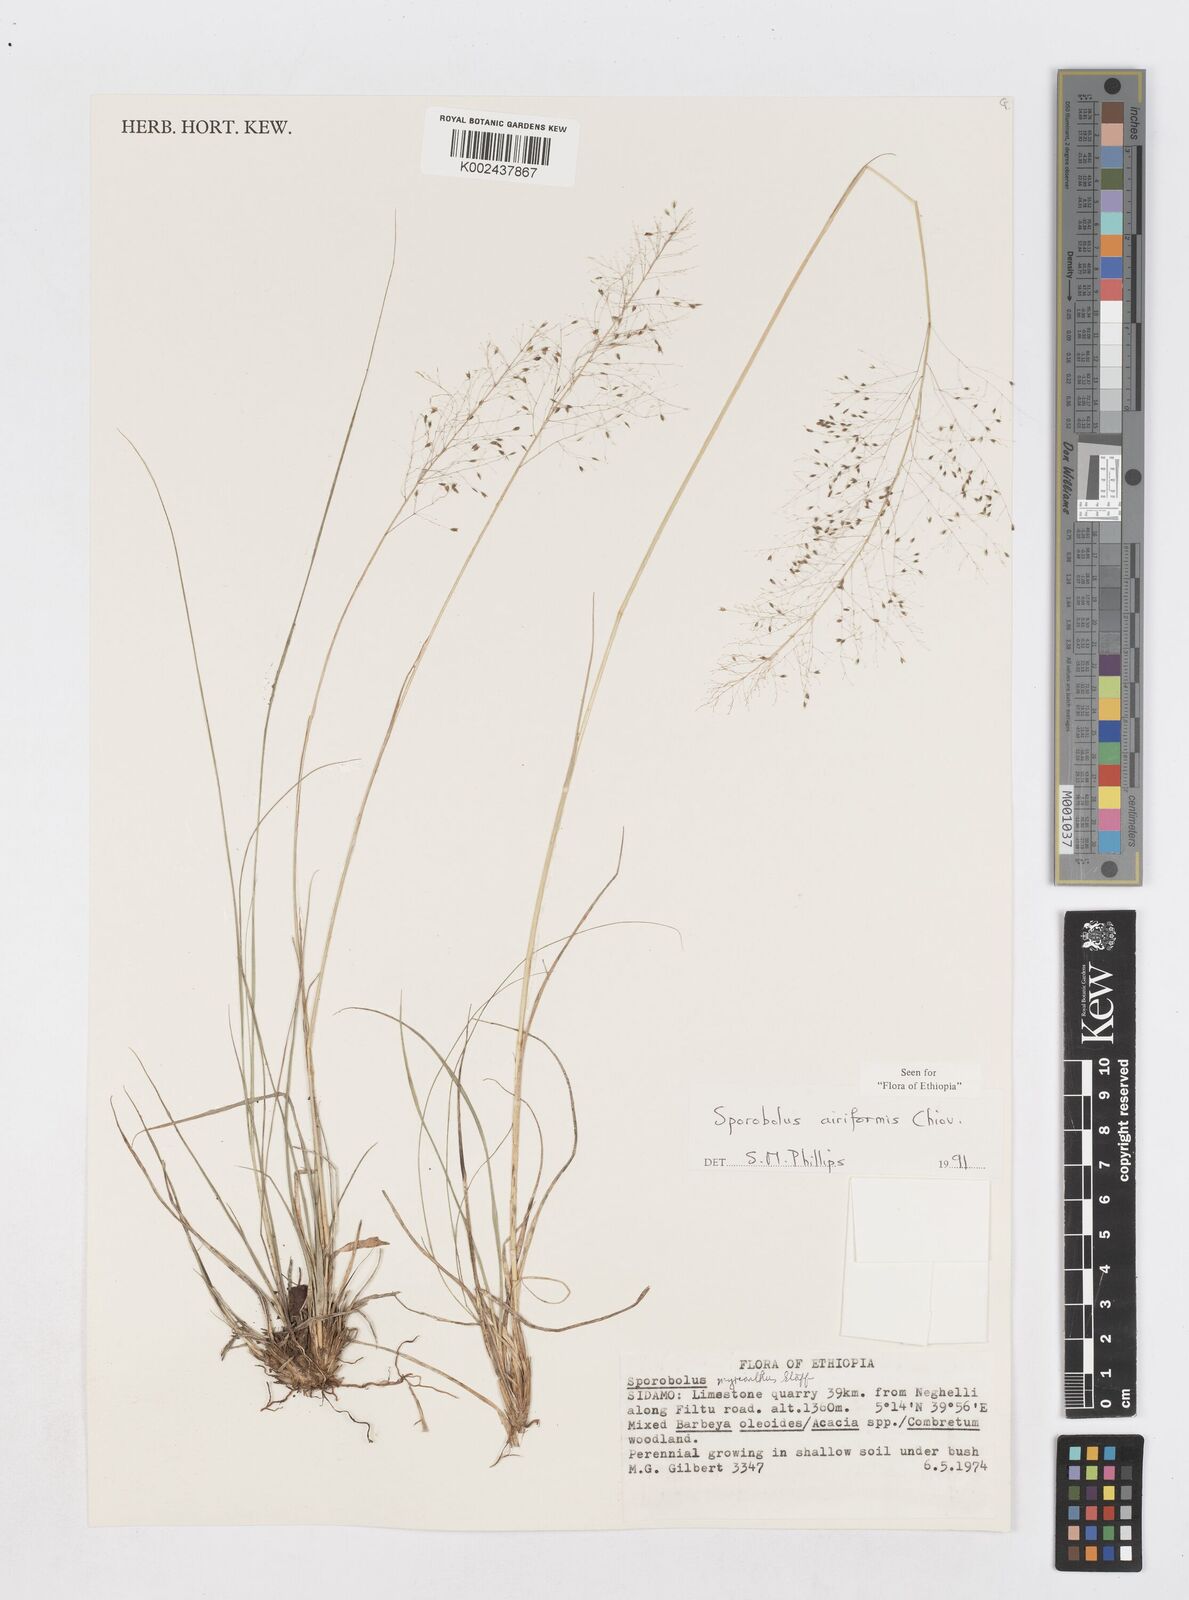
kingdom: Plantae
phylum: Tracheophyta
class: Liliopsida
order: Poales
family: Poaceae
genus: Sporobolus
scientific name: Sporobolus airiformis
